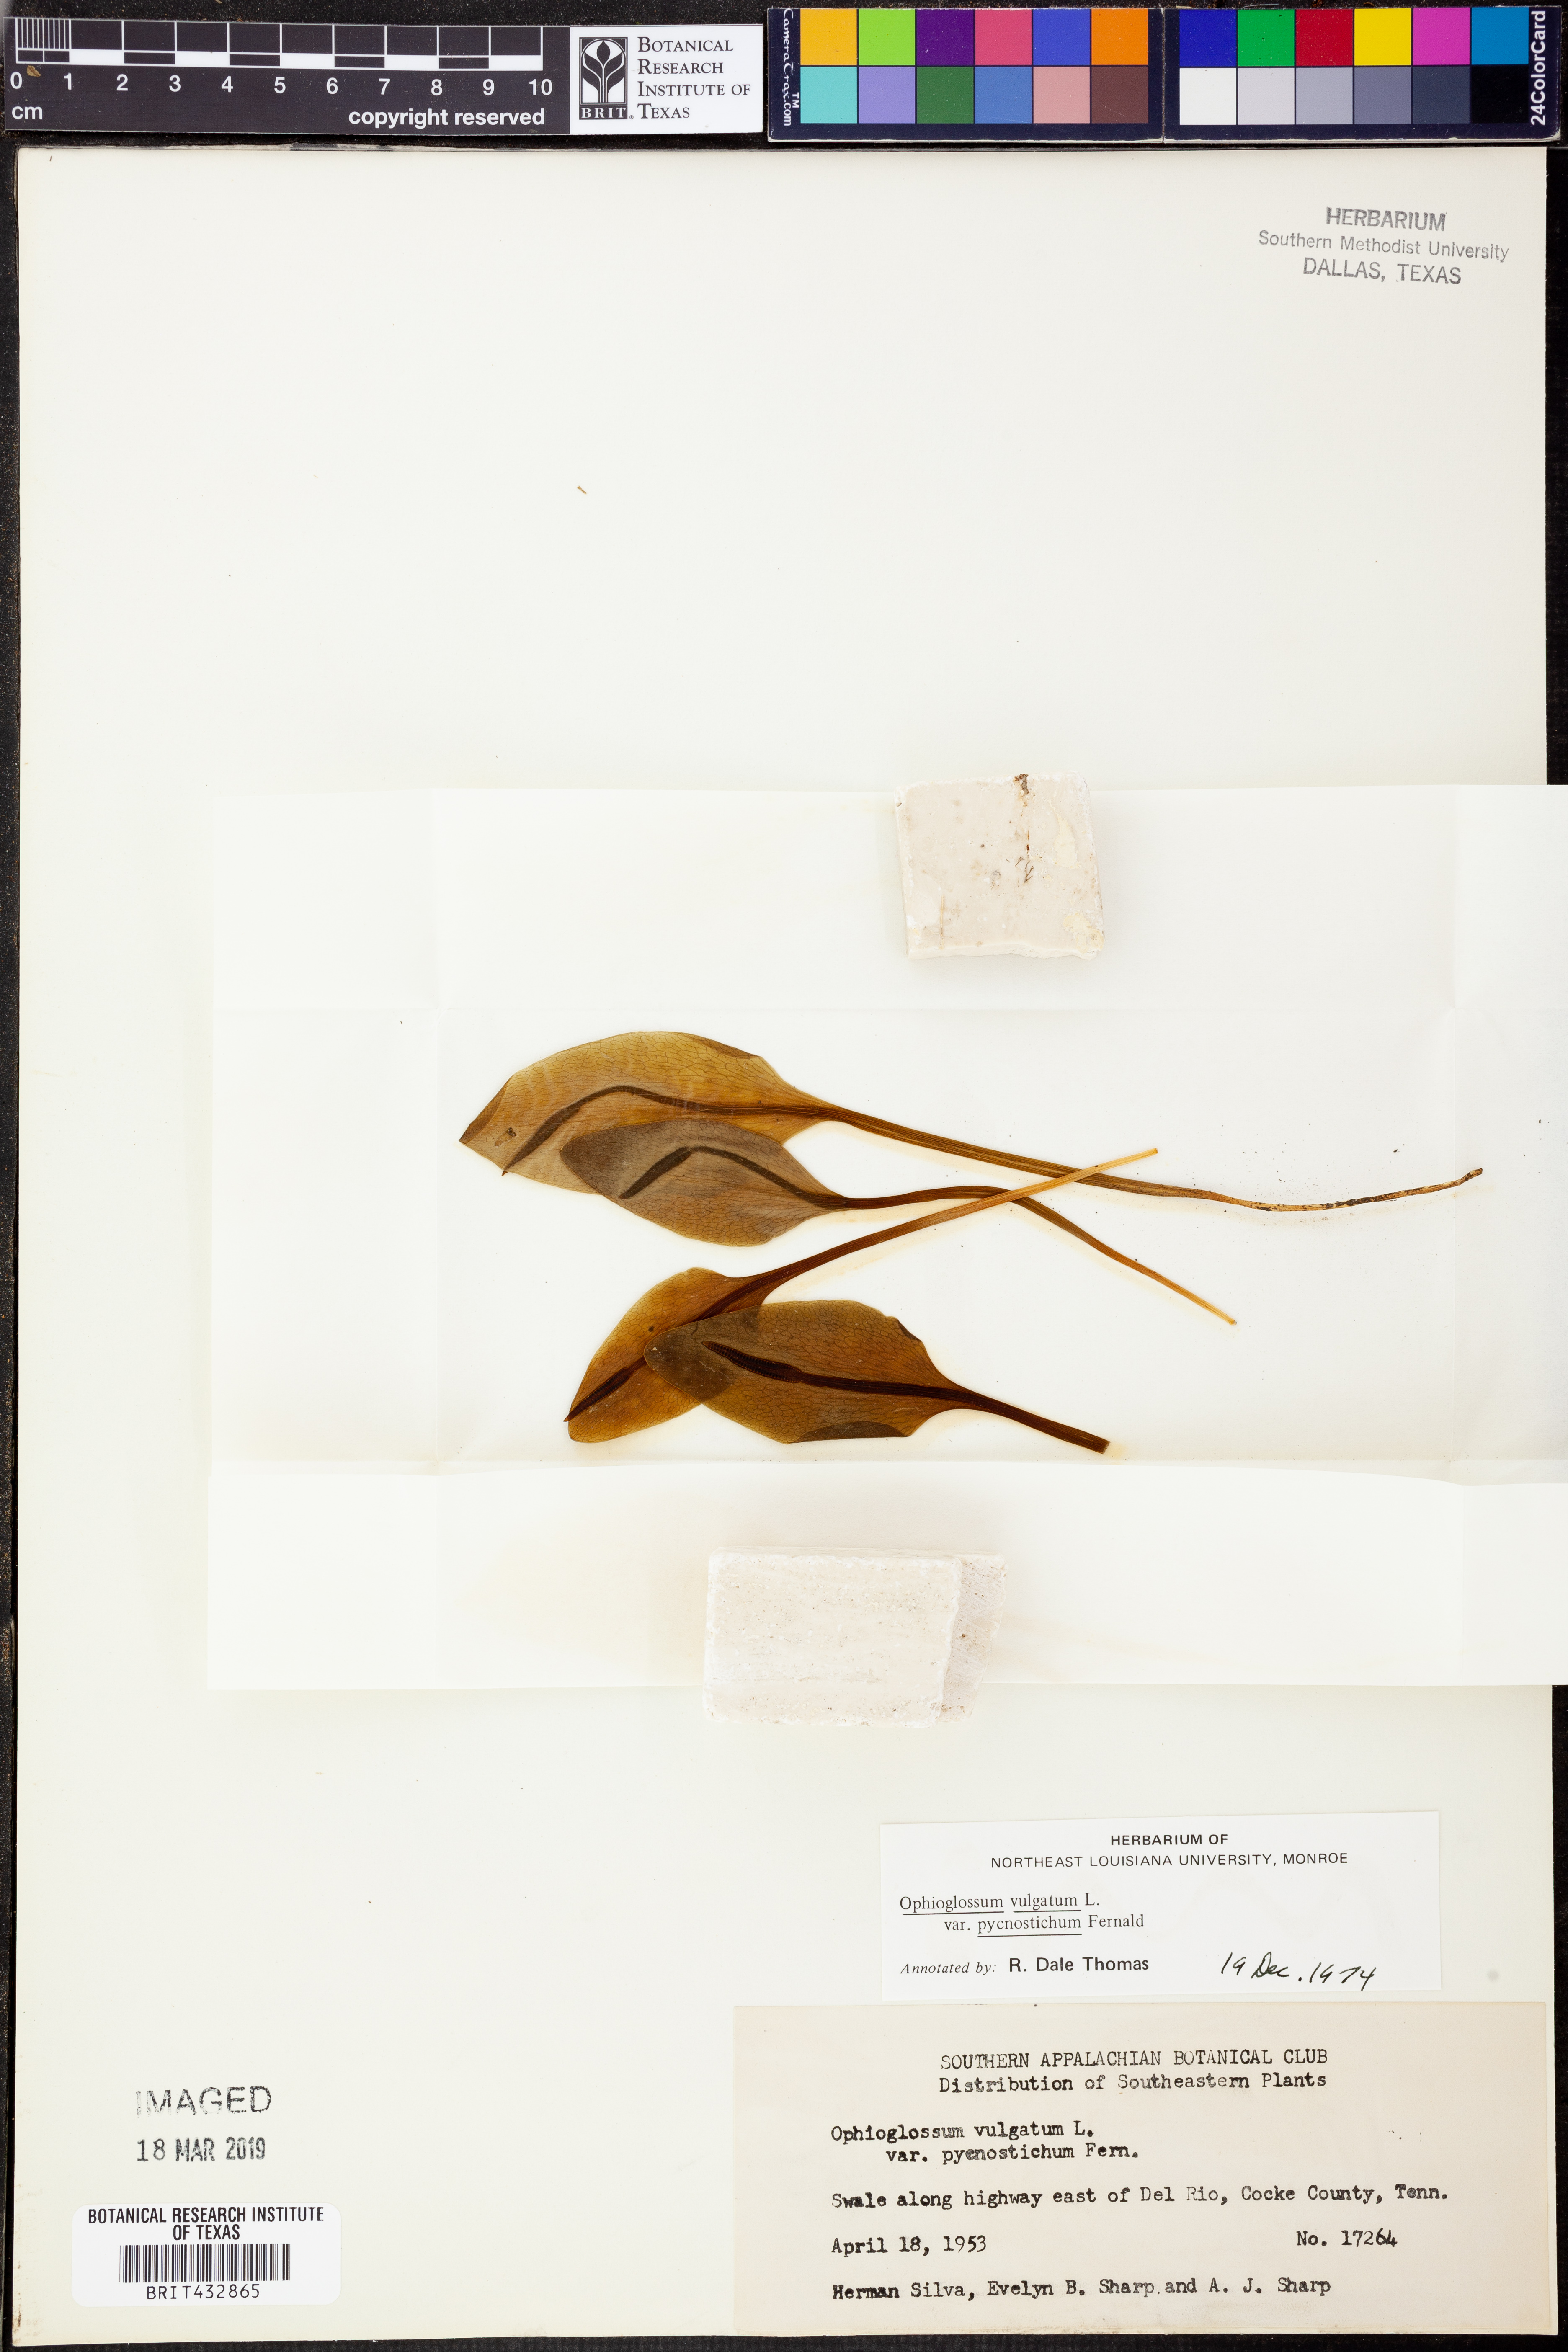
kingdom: Plantae
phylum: Tracheophyta
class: Polypodiopsida
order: Ophioglossales
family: Ophioglossaceae
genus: Ophioglossum
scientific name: Ophioglossum vulgatum
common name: Adder's-tongue
